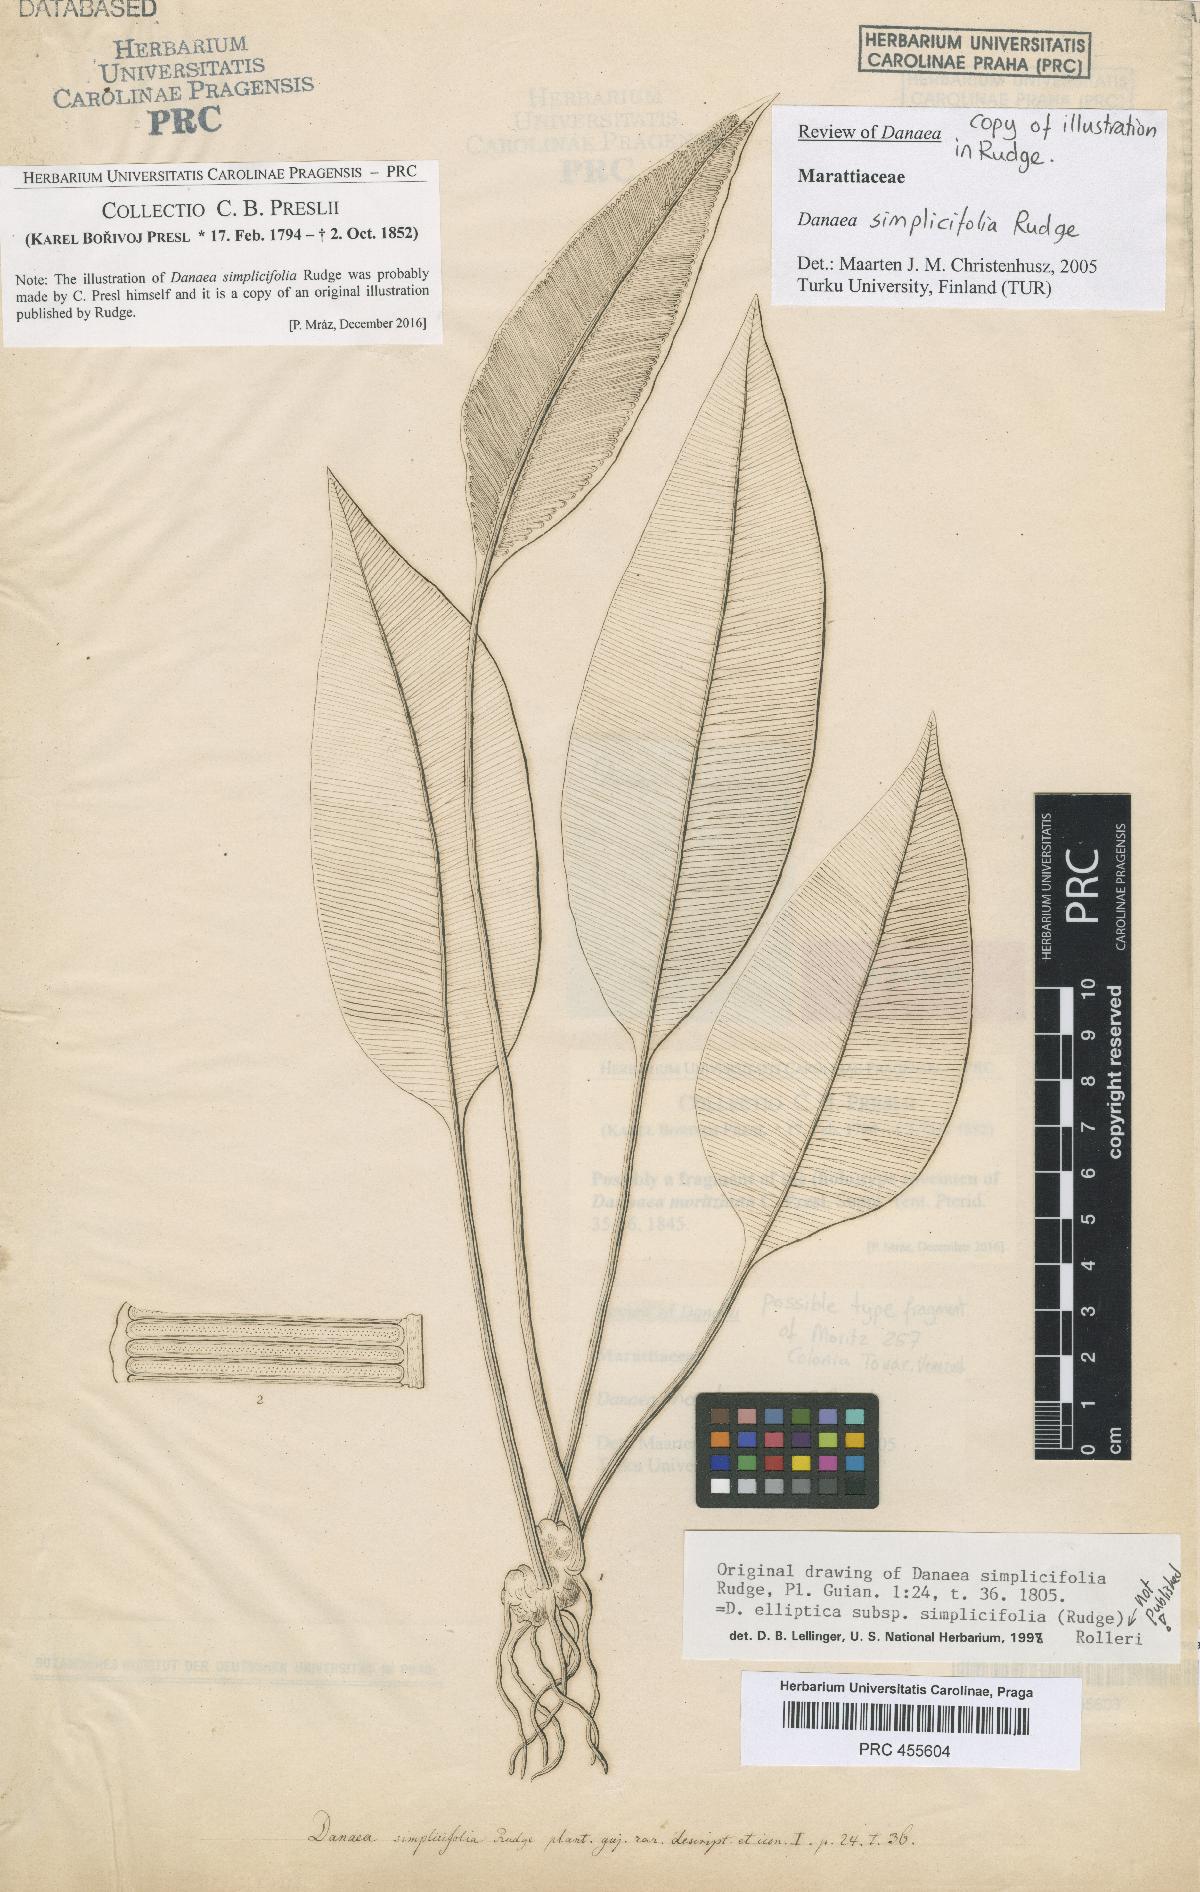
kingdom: Plantae
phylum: Tracheophyta
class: Polypodiopsida
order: Marattiales
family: Marattiaceae
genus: Danaea
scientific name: Danaea simplicifolia
